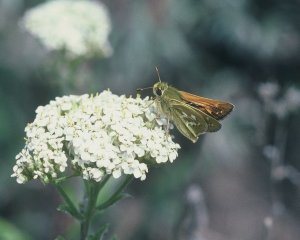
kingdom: Animalia
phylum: Arthropoda
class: Insecta
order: Lepidoptera
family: Hesperiidae
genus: Hesperia
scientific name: Hesperia comma
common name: Western Branded Skipper
